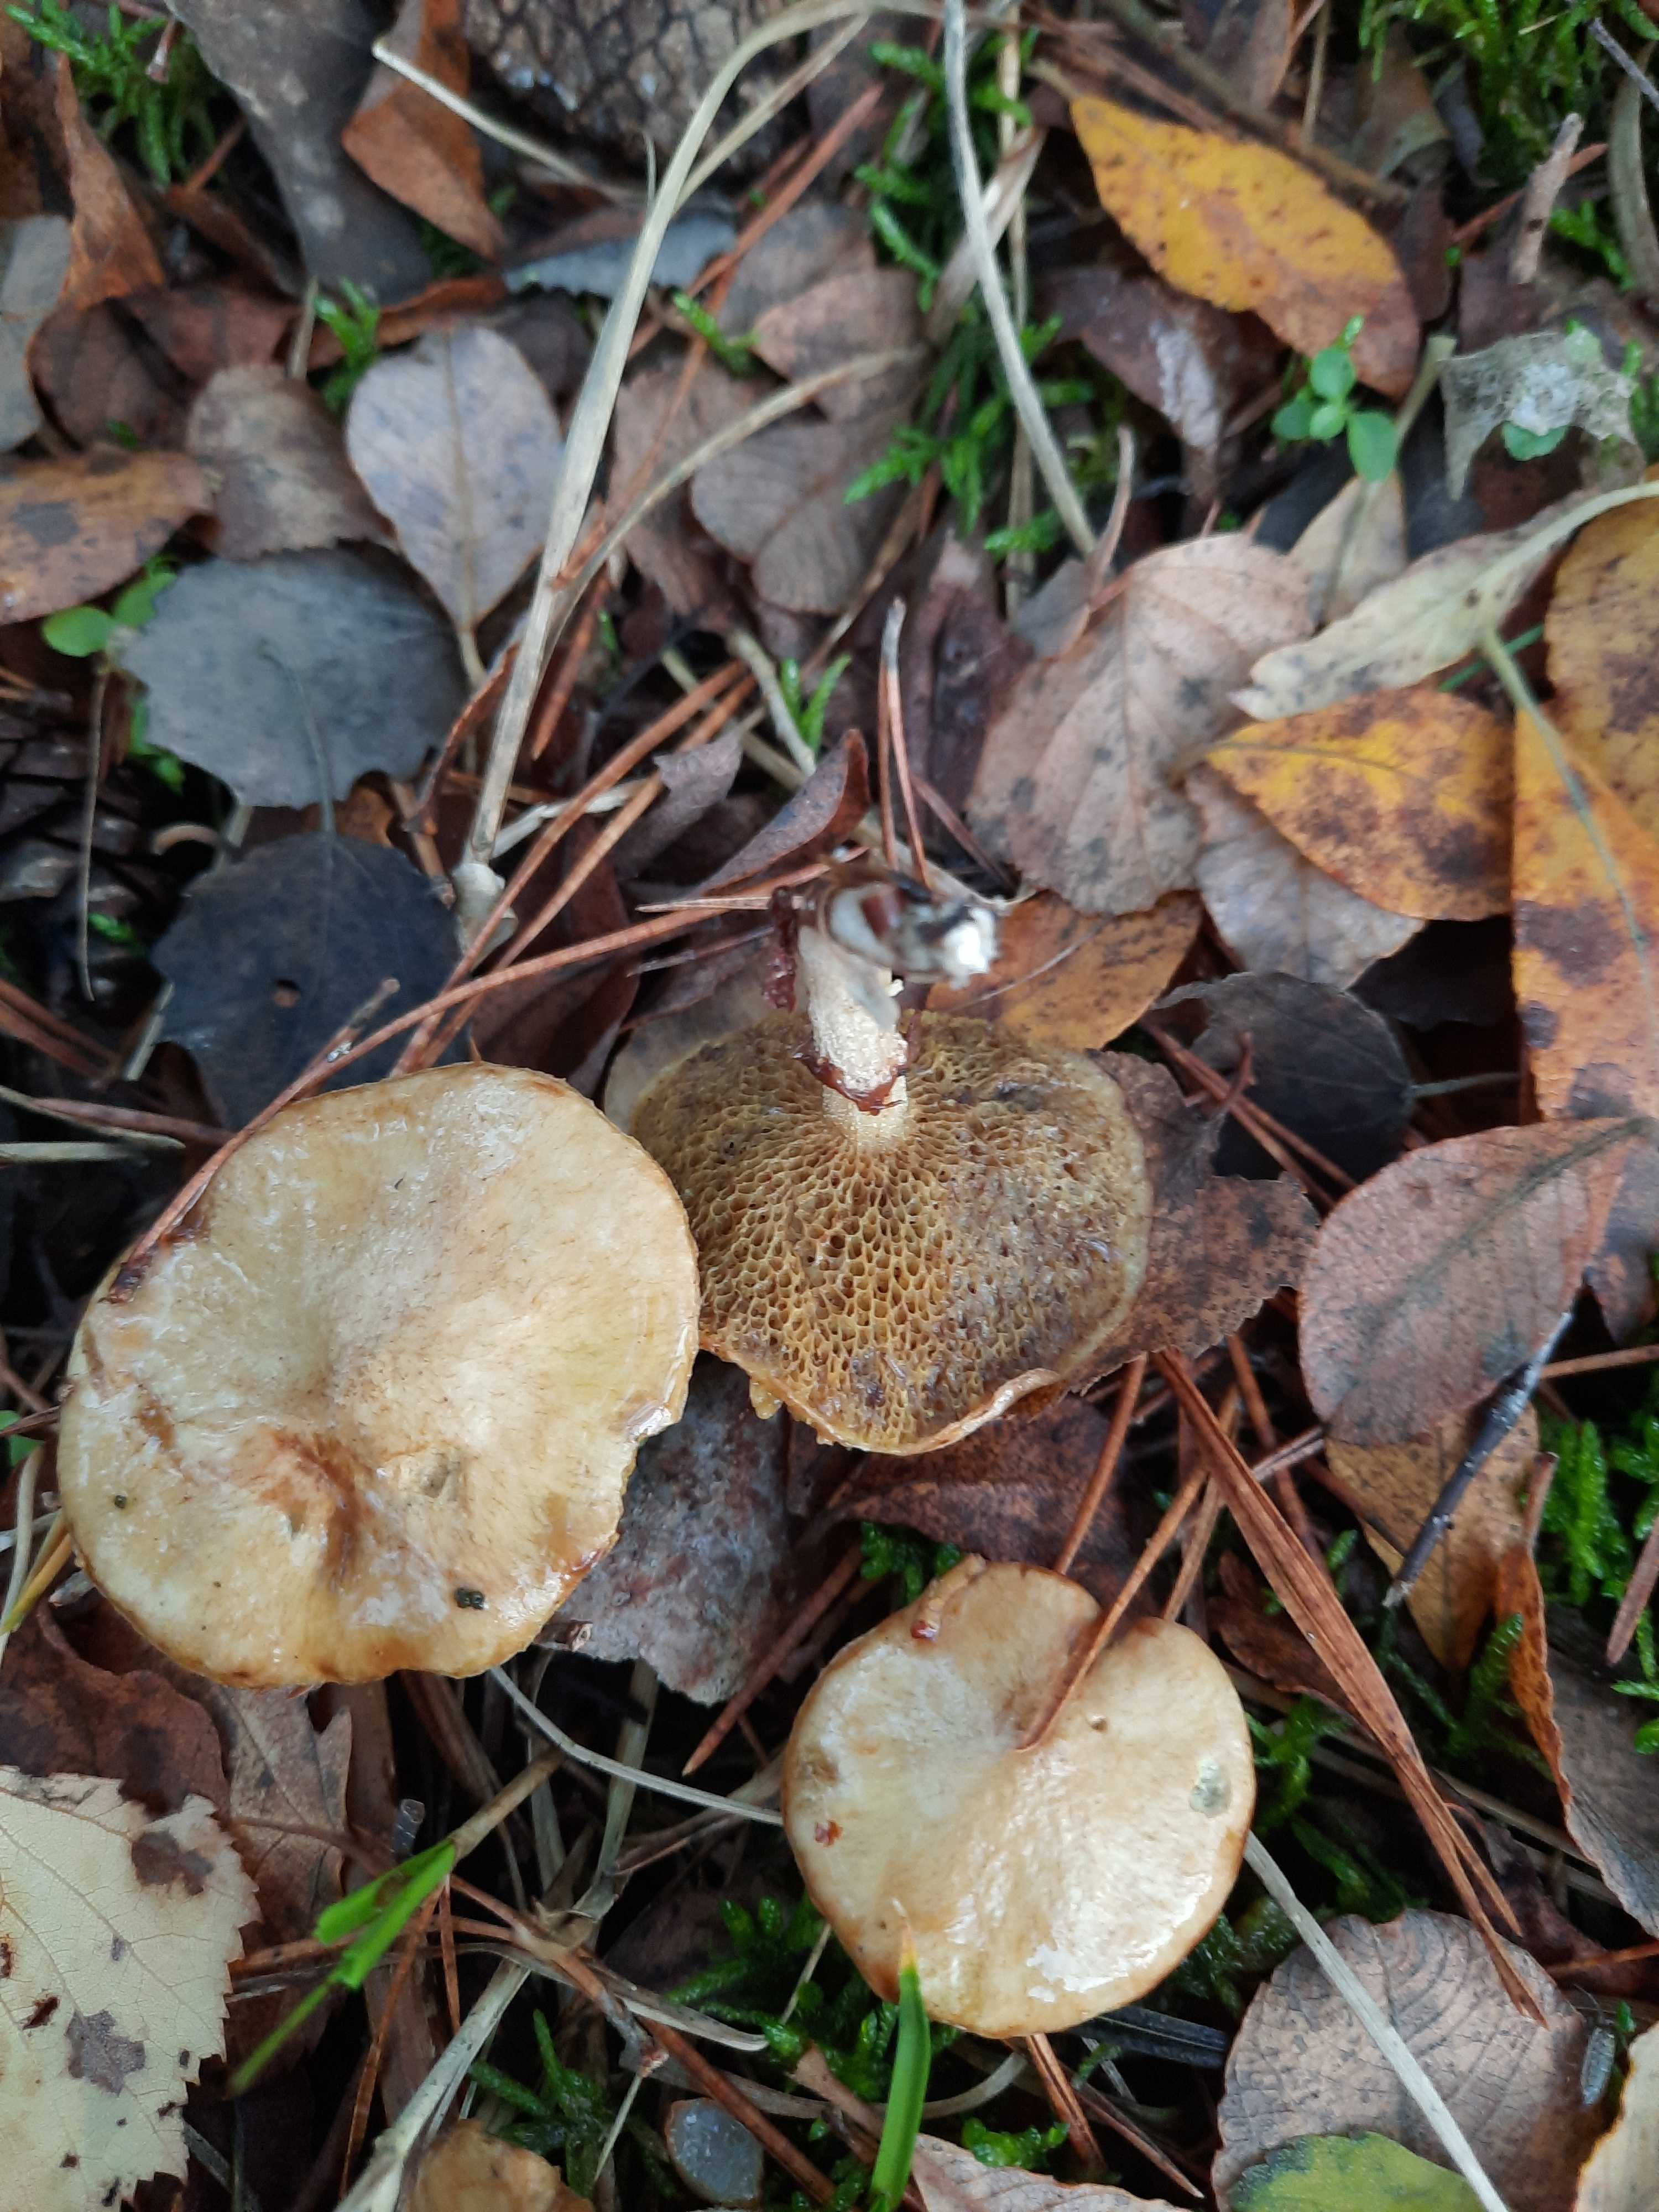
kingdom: Fungi
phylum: Basidiomycota
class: Agaricomycetes
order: Boletales
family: Suillaceae
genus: Suillus
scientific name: Suillus flavidus
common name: mose-slimrørhat
